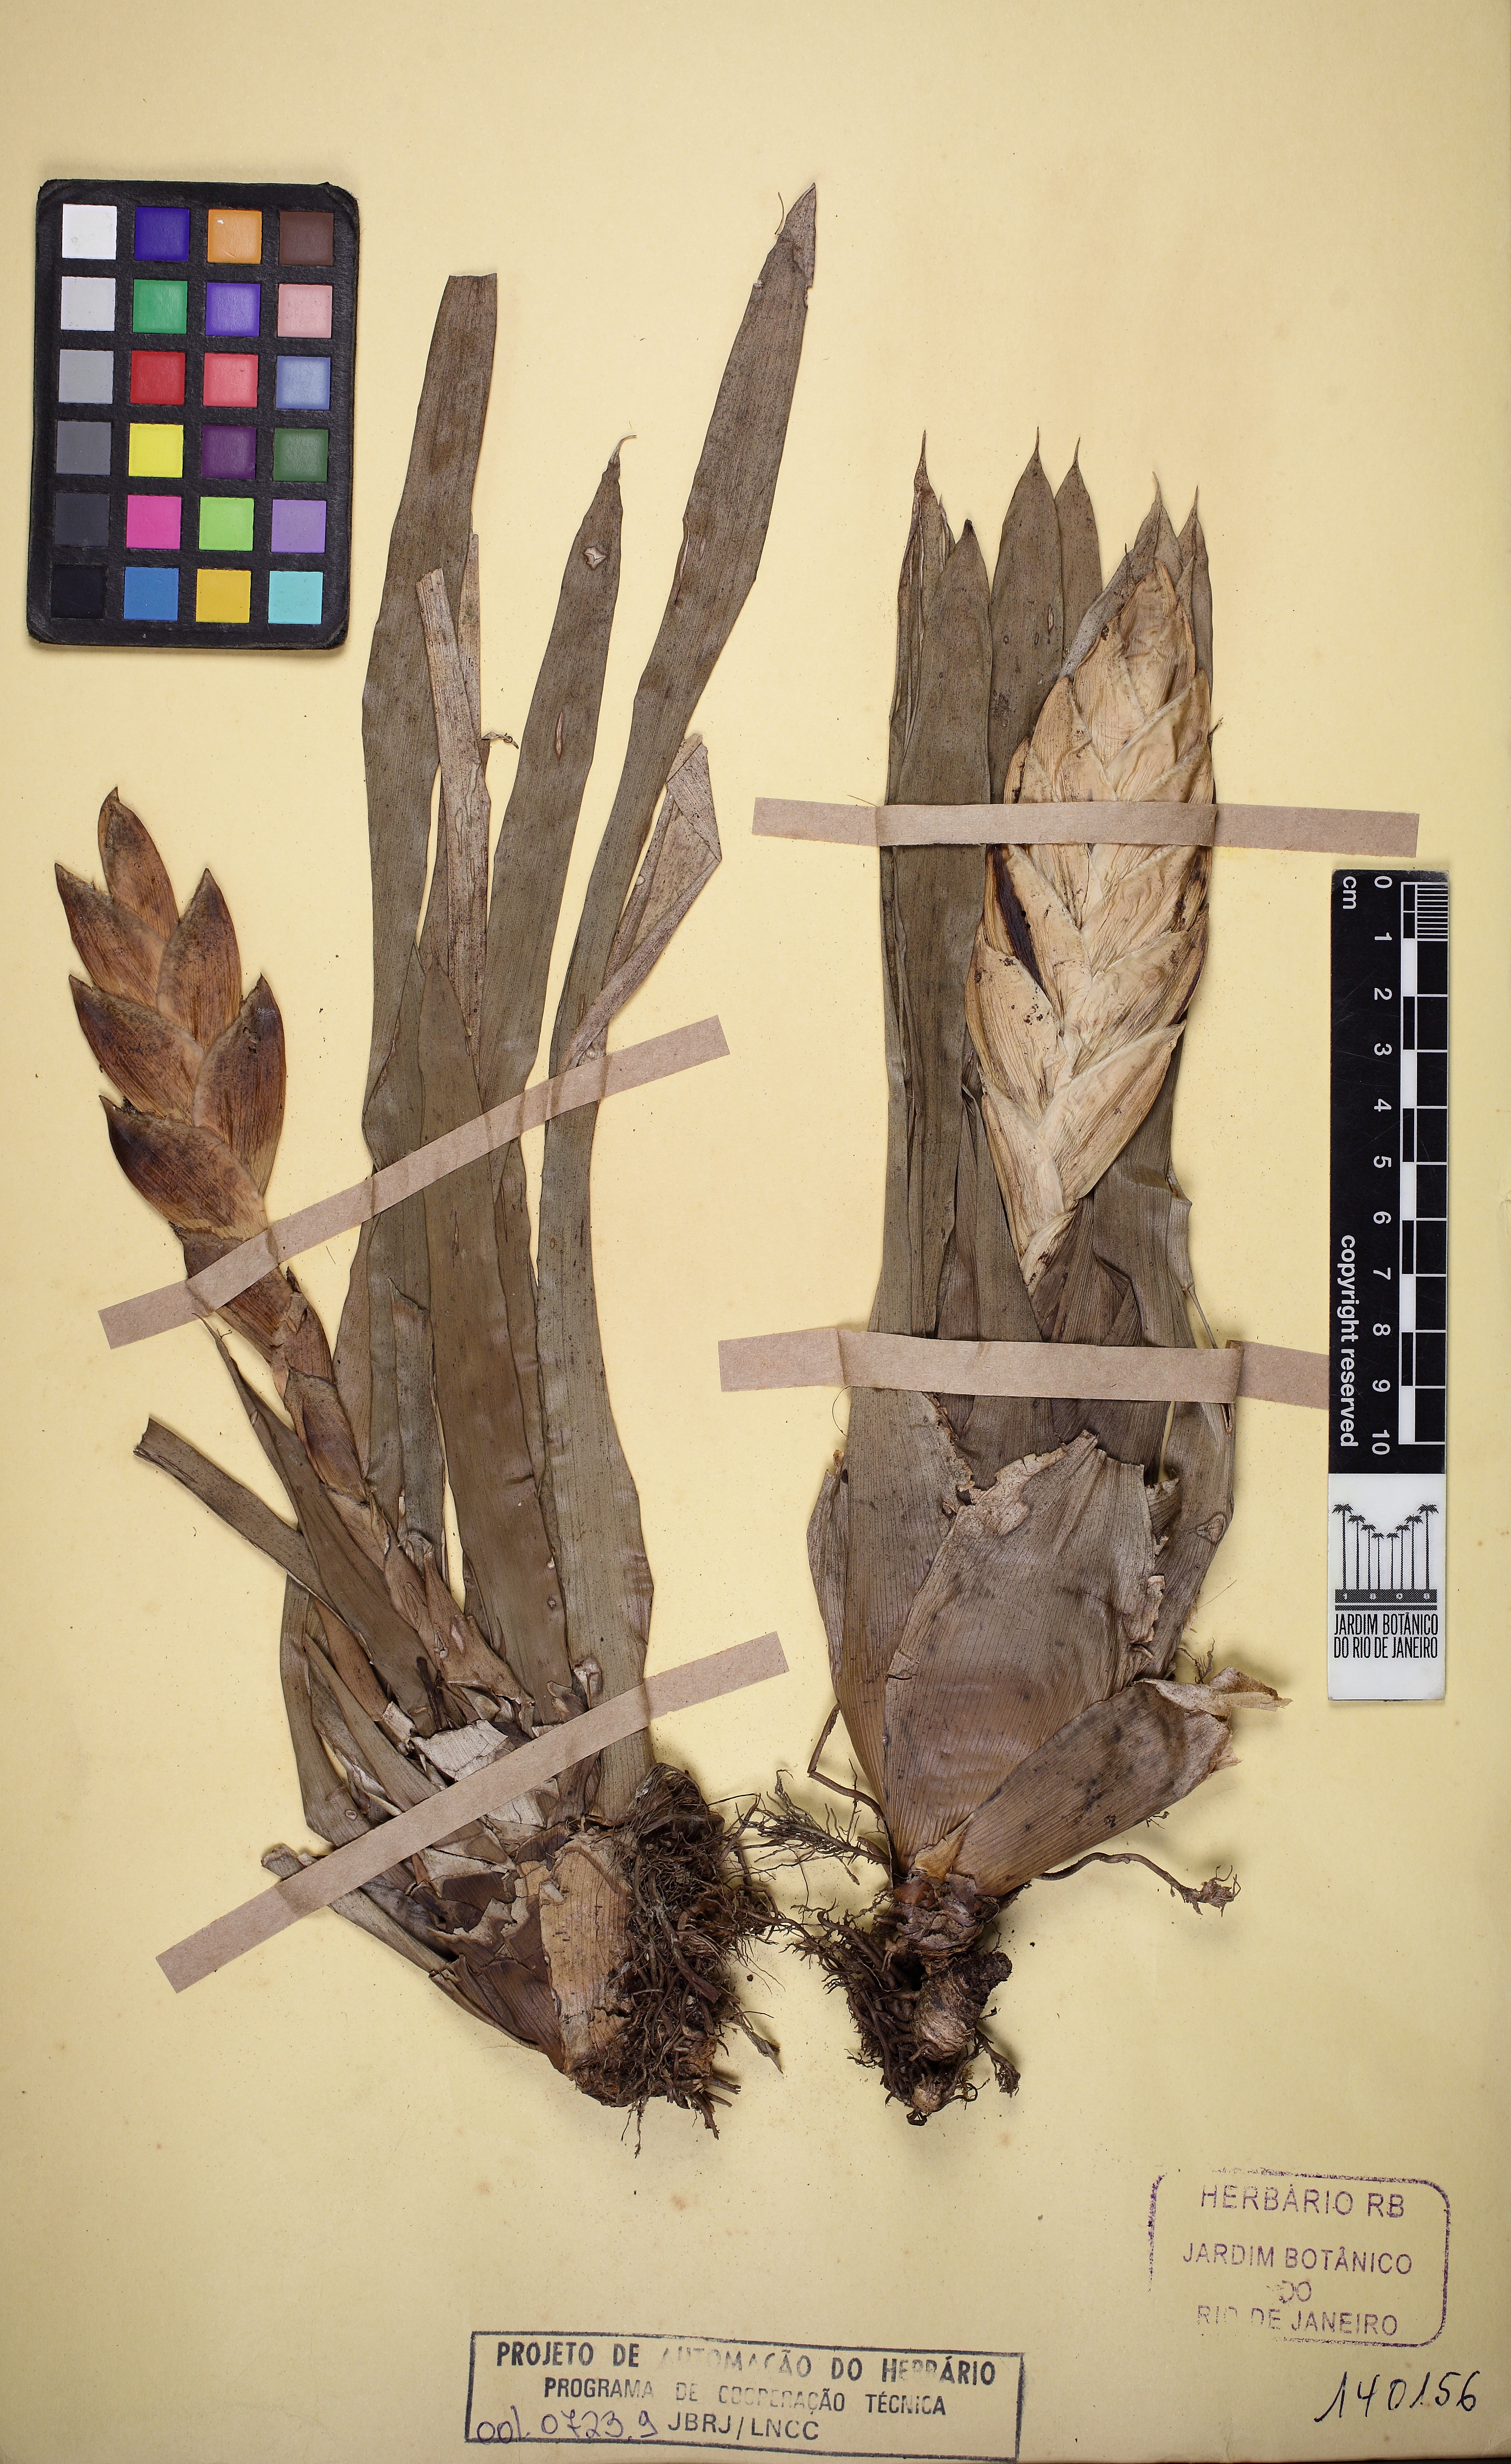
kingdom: Plantae
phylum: Tracheophyta
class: Liliopsida
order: Poales
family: Bromeliaceae
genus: Vriesea
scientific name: Vriesea teresopolitana
